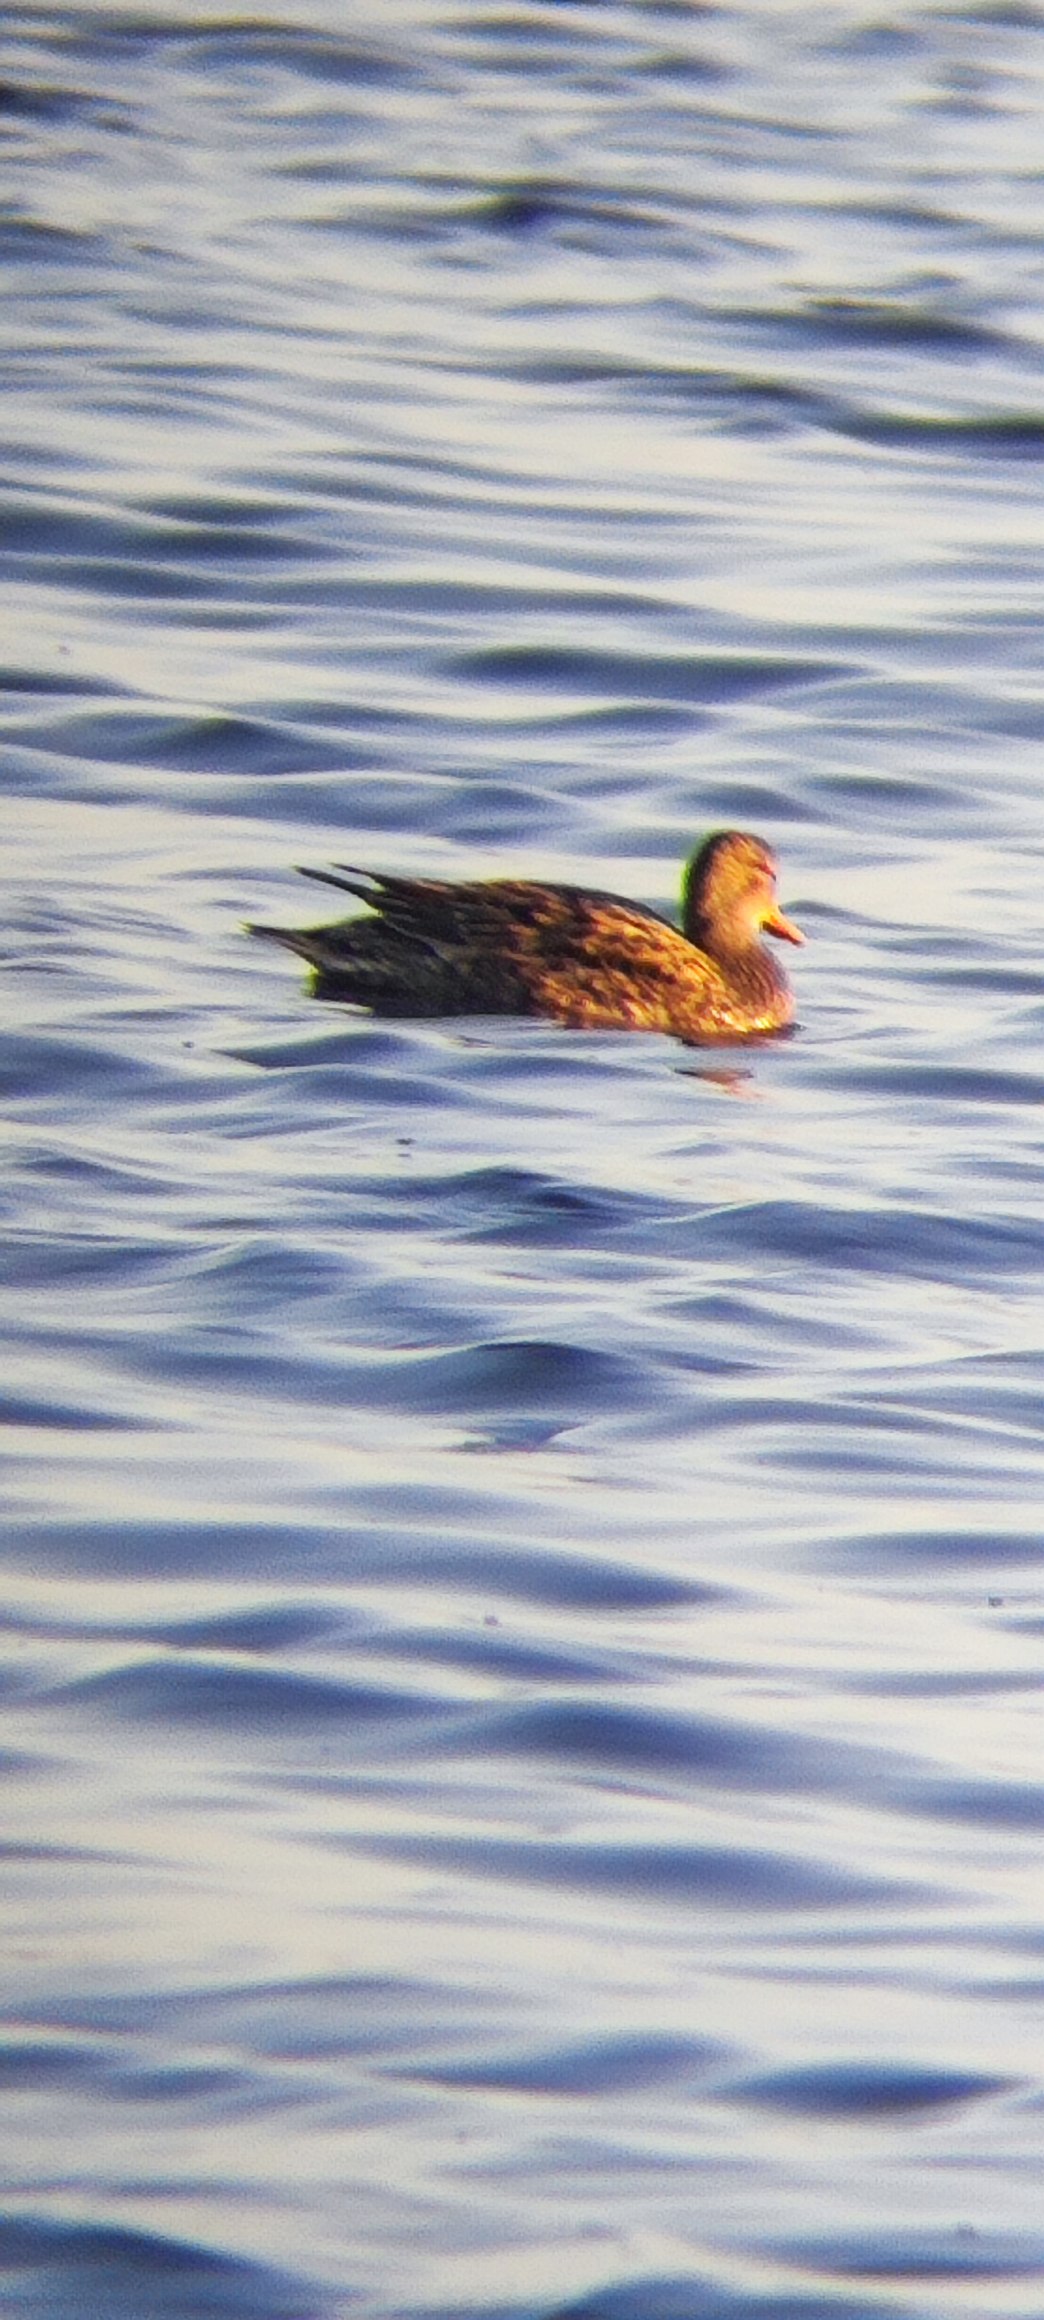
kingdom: Animalia
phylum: Chordata
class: Aves
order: Anseriformes
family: Anatidae
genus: Mareca
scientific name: Mareca strepera
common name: Knarand
